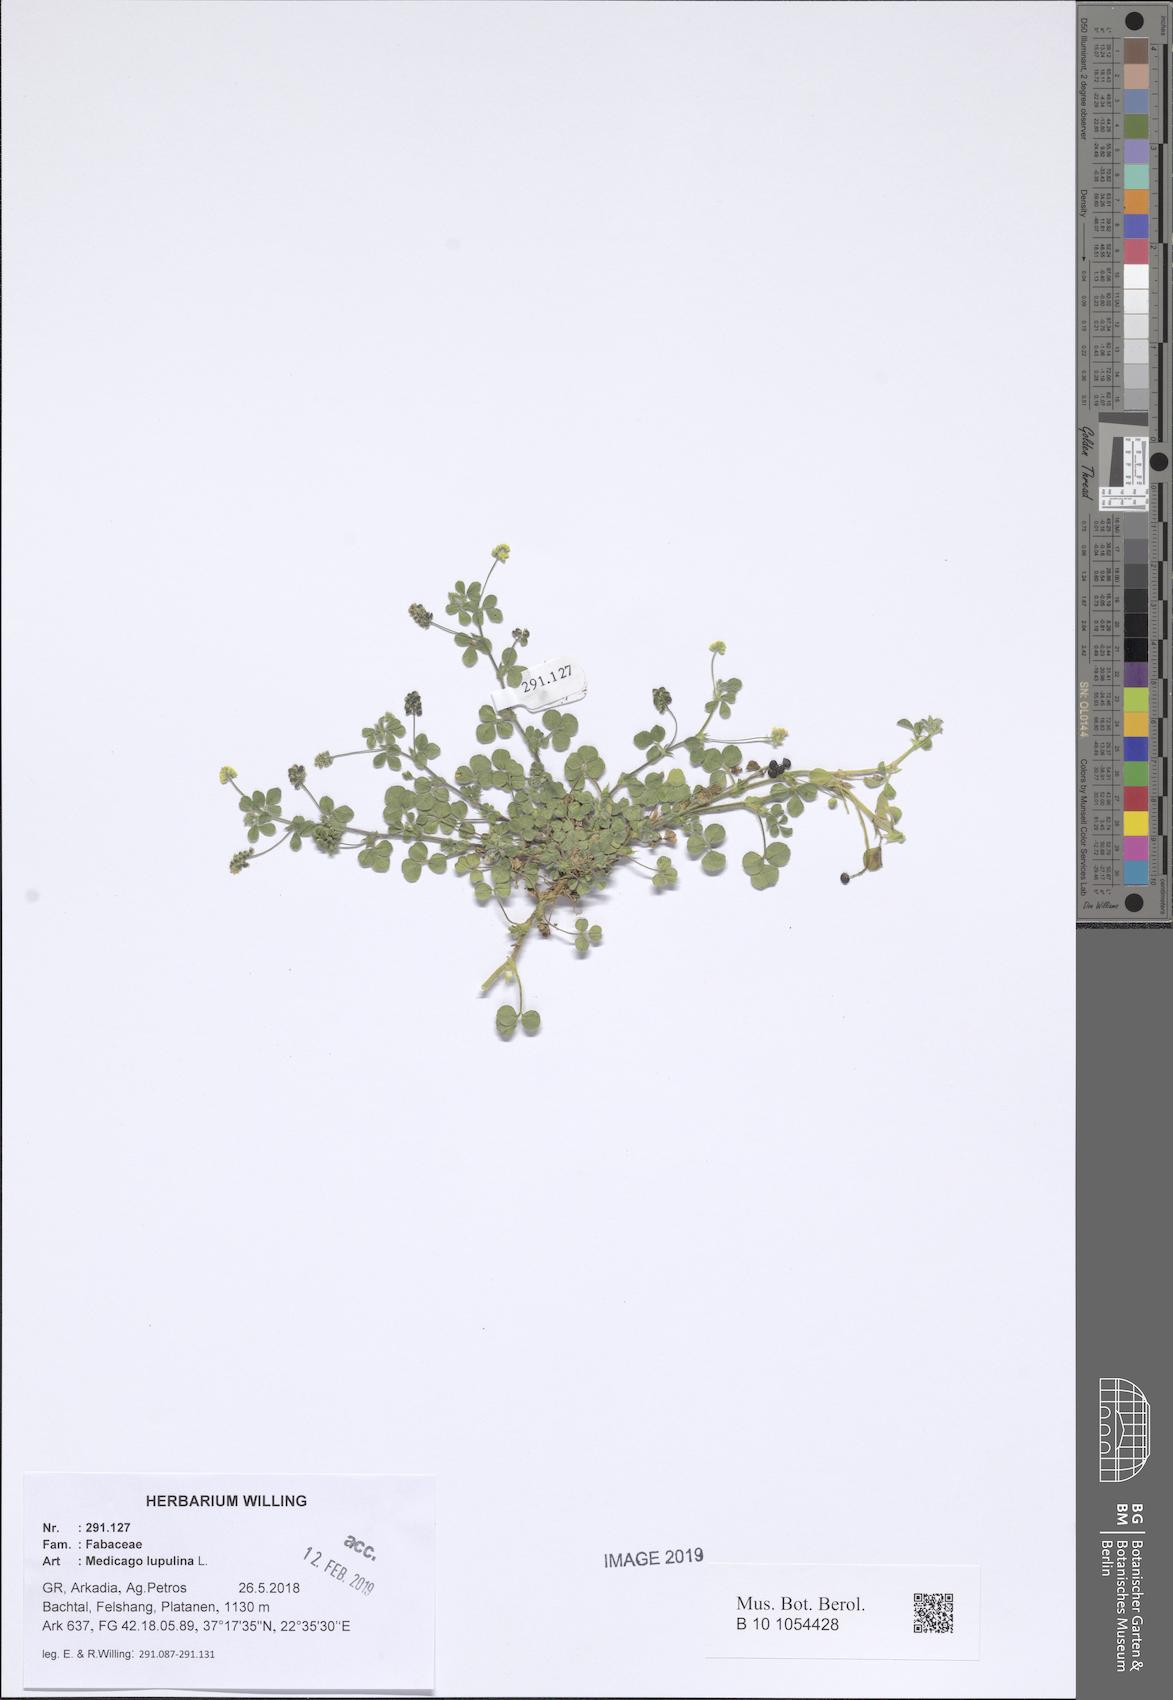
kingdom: Plantae
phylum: Tracheophyta
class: Magnoliopsida
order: Fabales
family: Fabaceae
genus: Medicago
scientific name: Medicago lupulina
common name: Black medick
